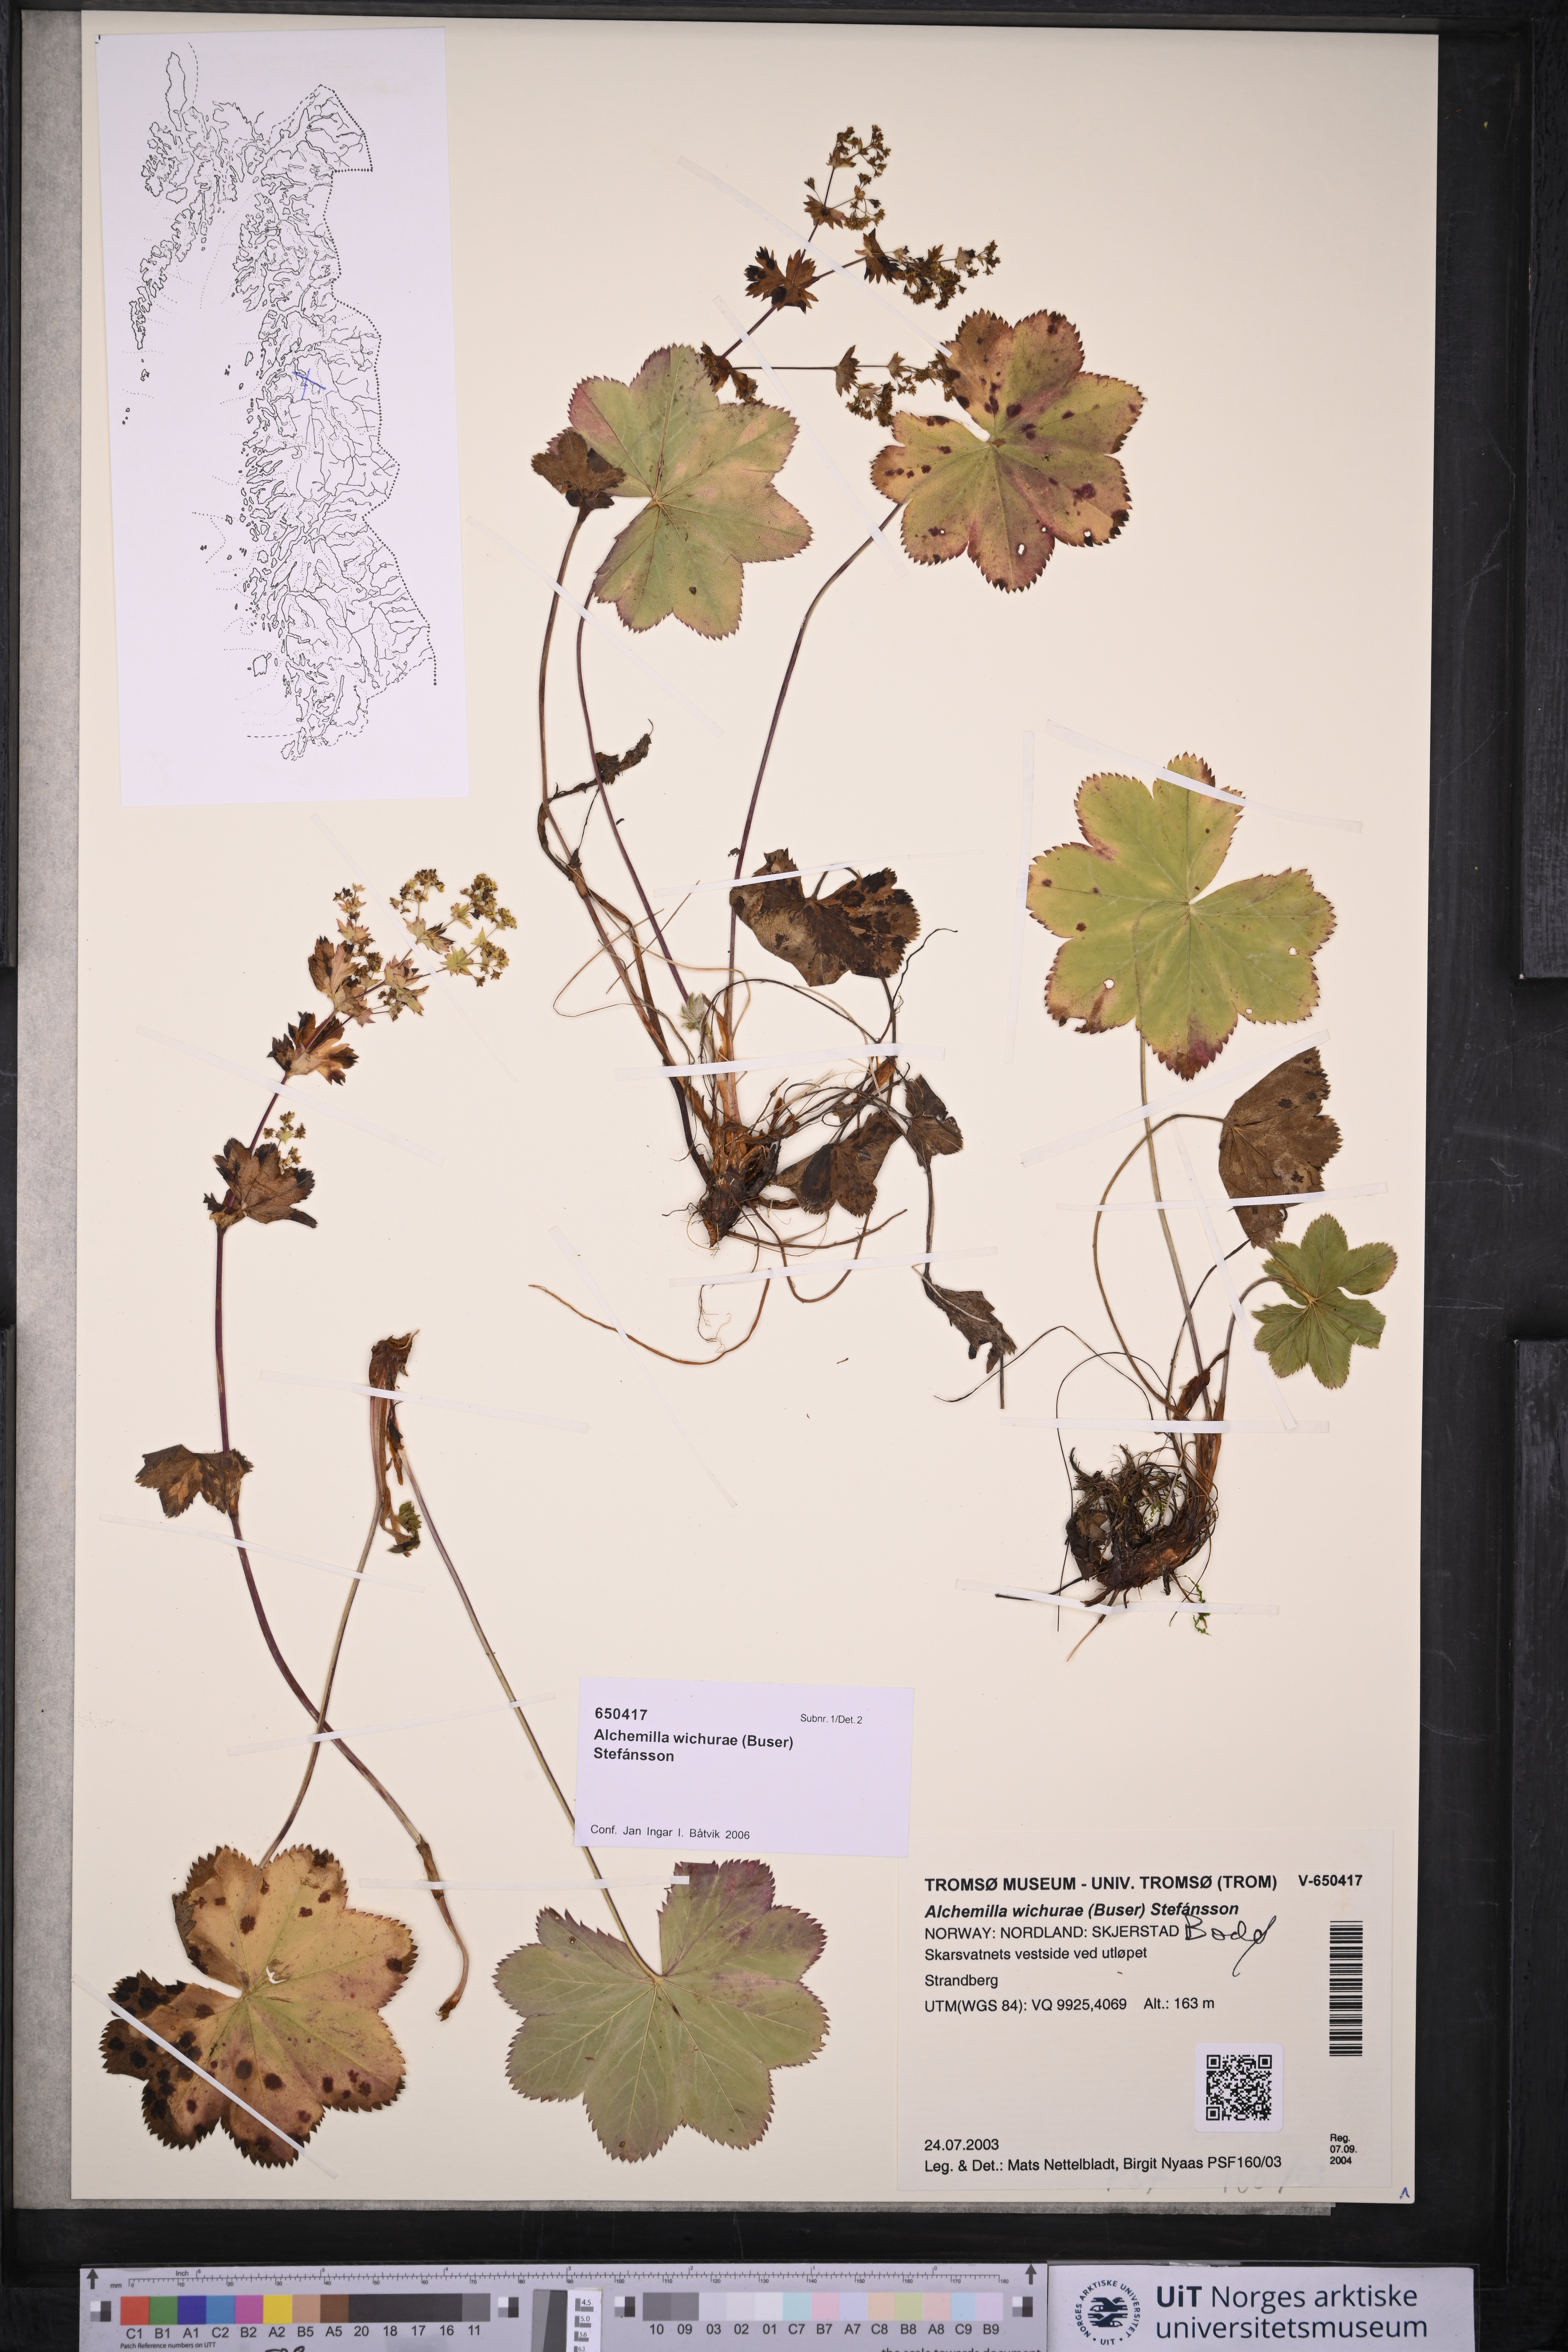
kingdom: Plantae
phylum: Tracheophyta
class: Magnoliopsida
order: Rosales
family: Rosaceae
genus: Alchemilla
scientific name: Alchemilla wichurae
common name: Rock lady's mantle
